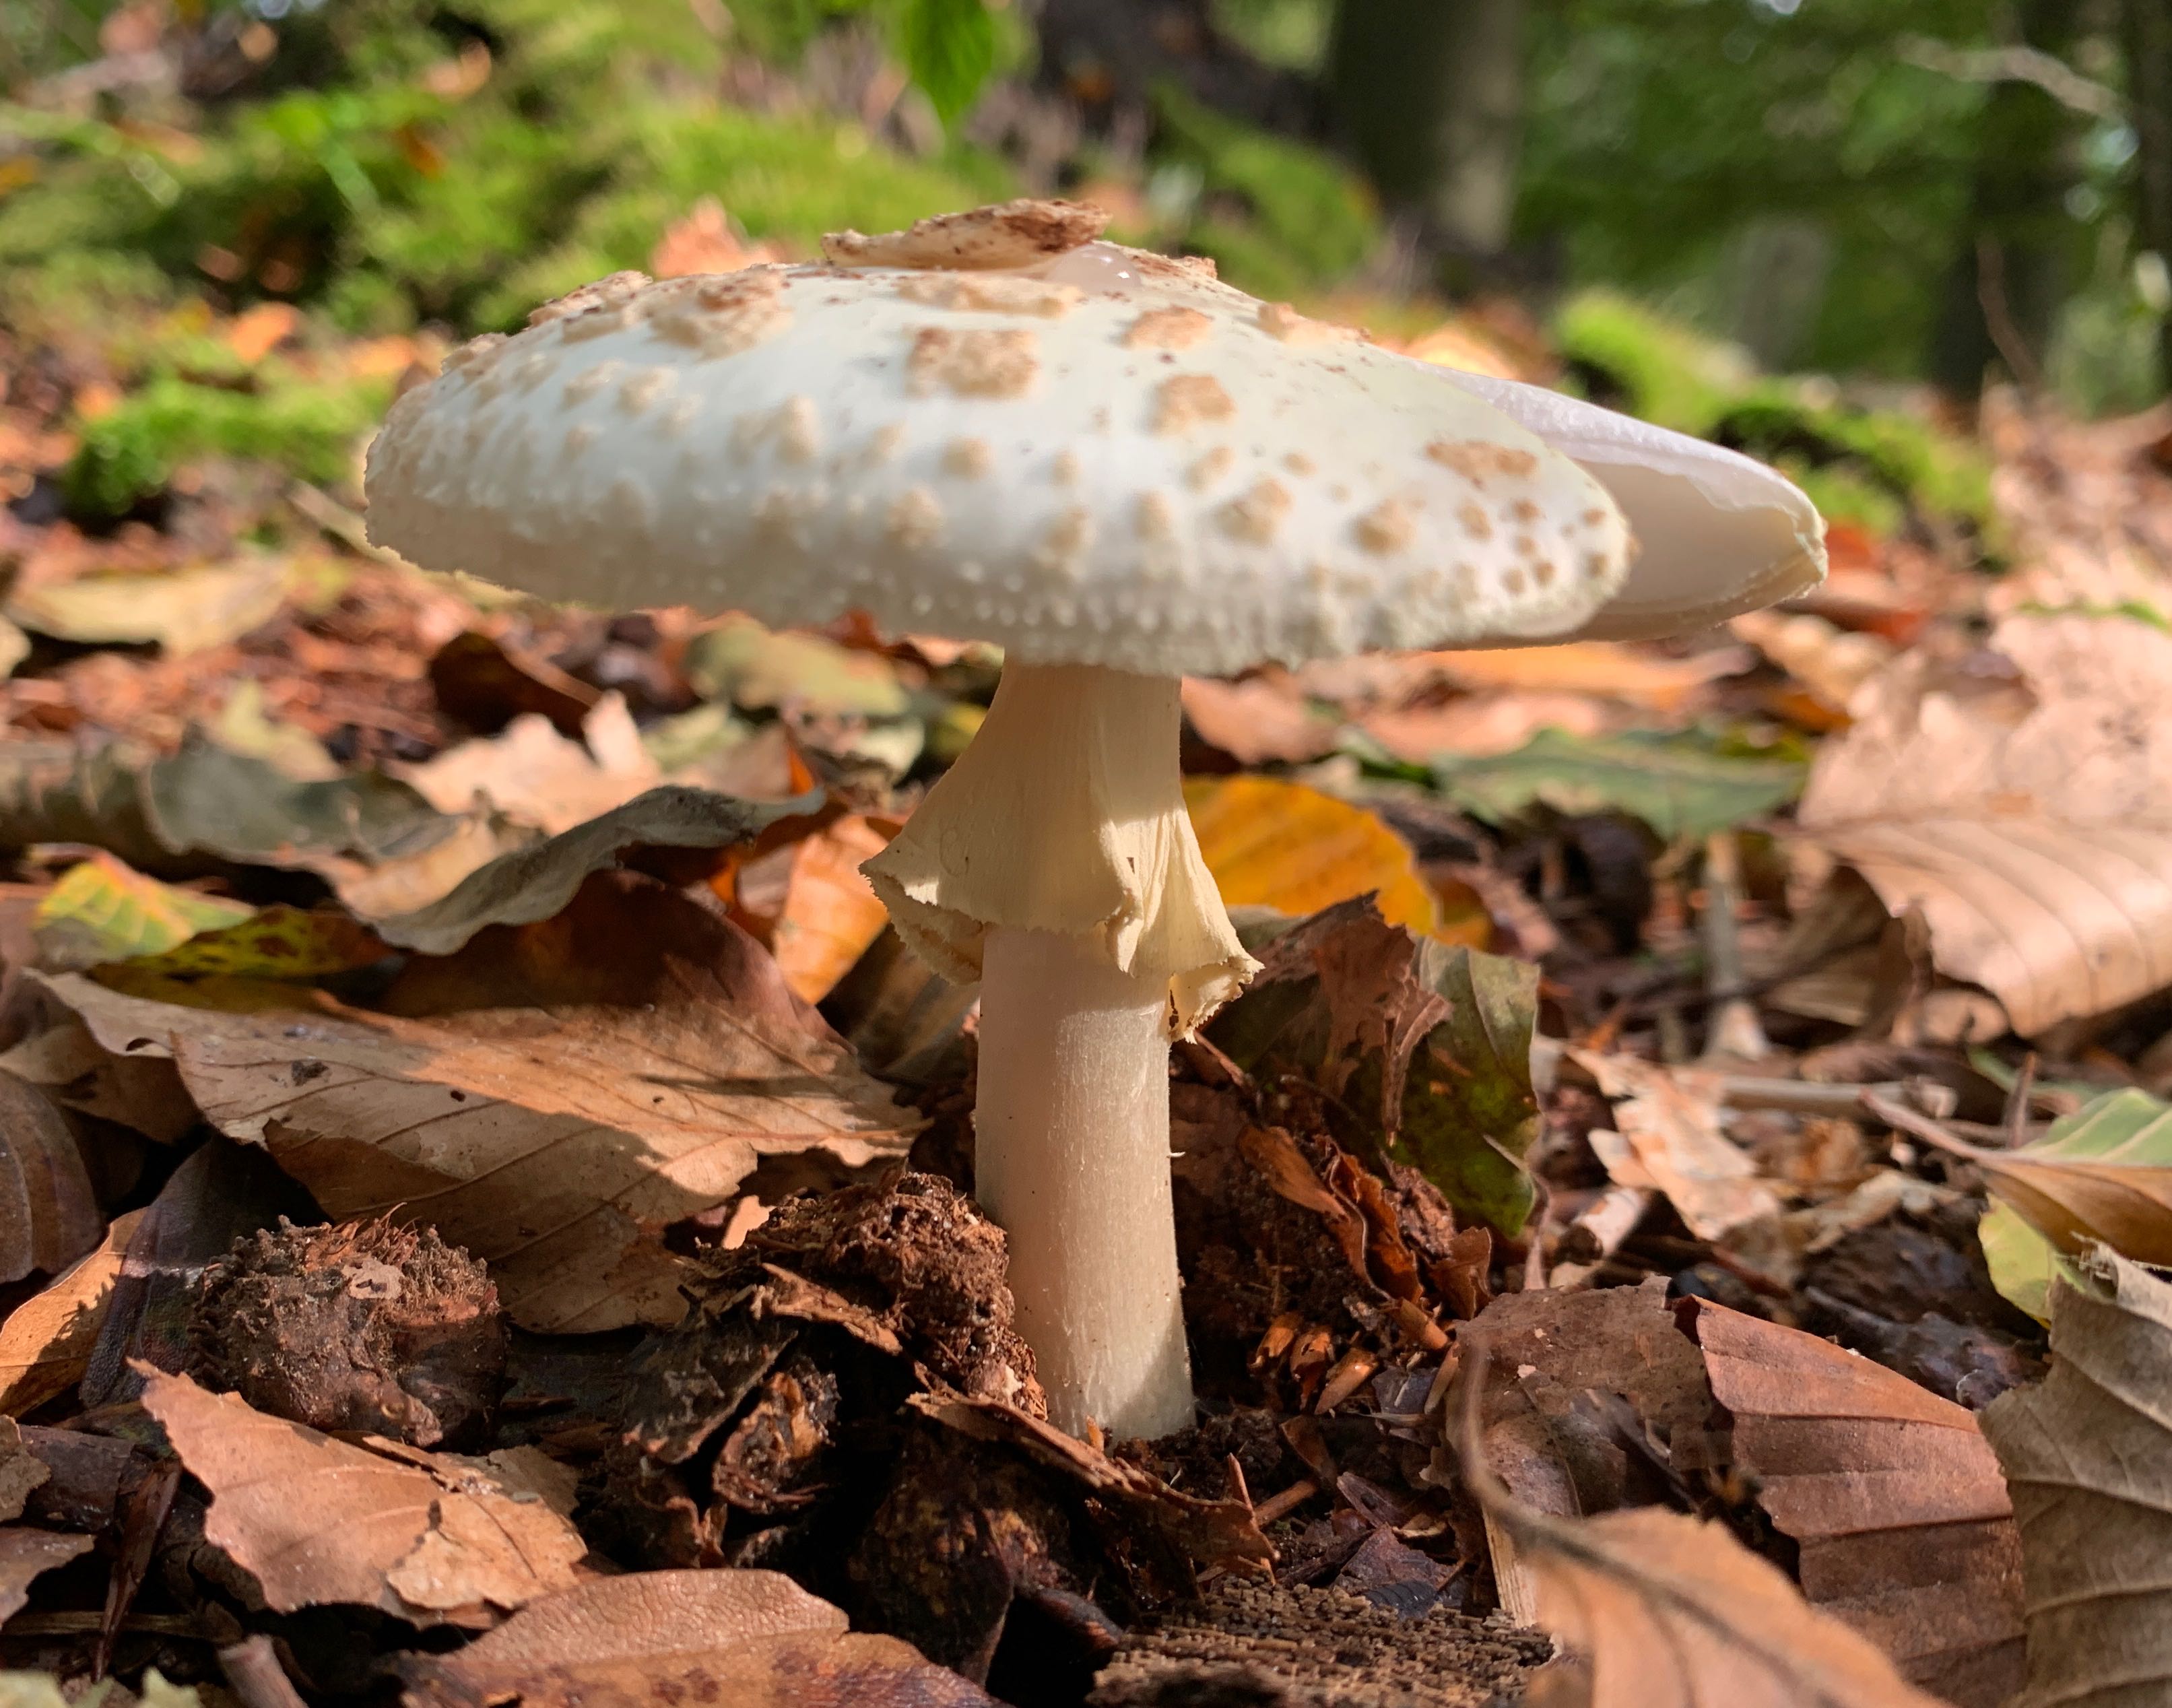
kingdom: Fungi
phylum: Basidiomycota
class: Agaricomycetes
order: Agaricales
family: Amanitaceae
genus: Amanita
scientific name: Amanita citrina
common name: kugleknoldet fluesvamp
